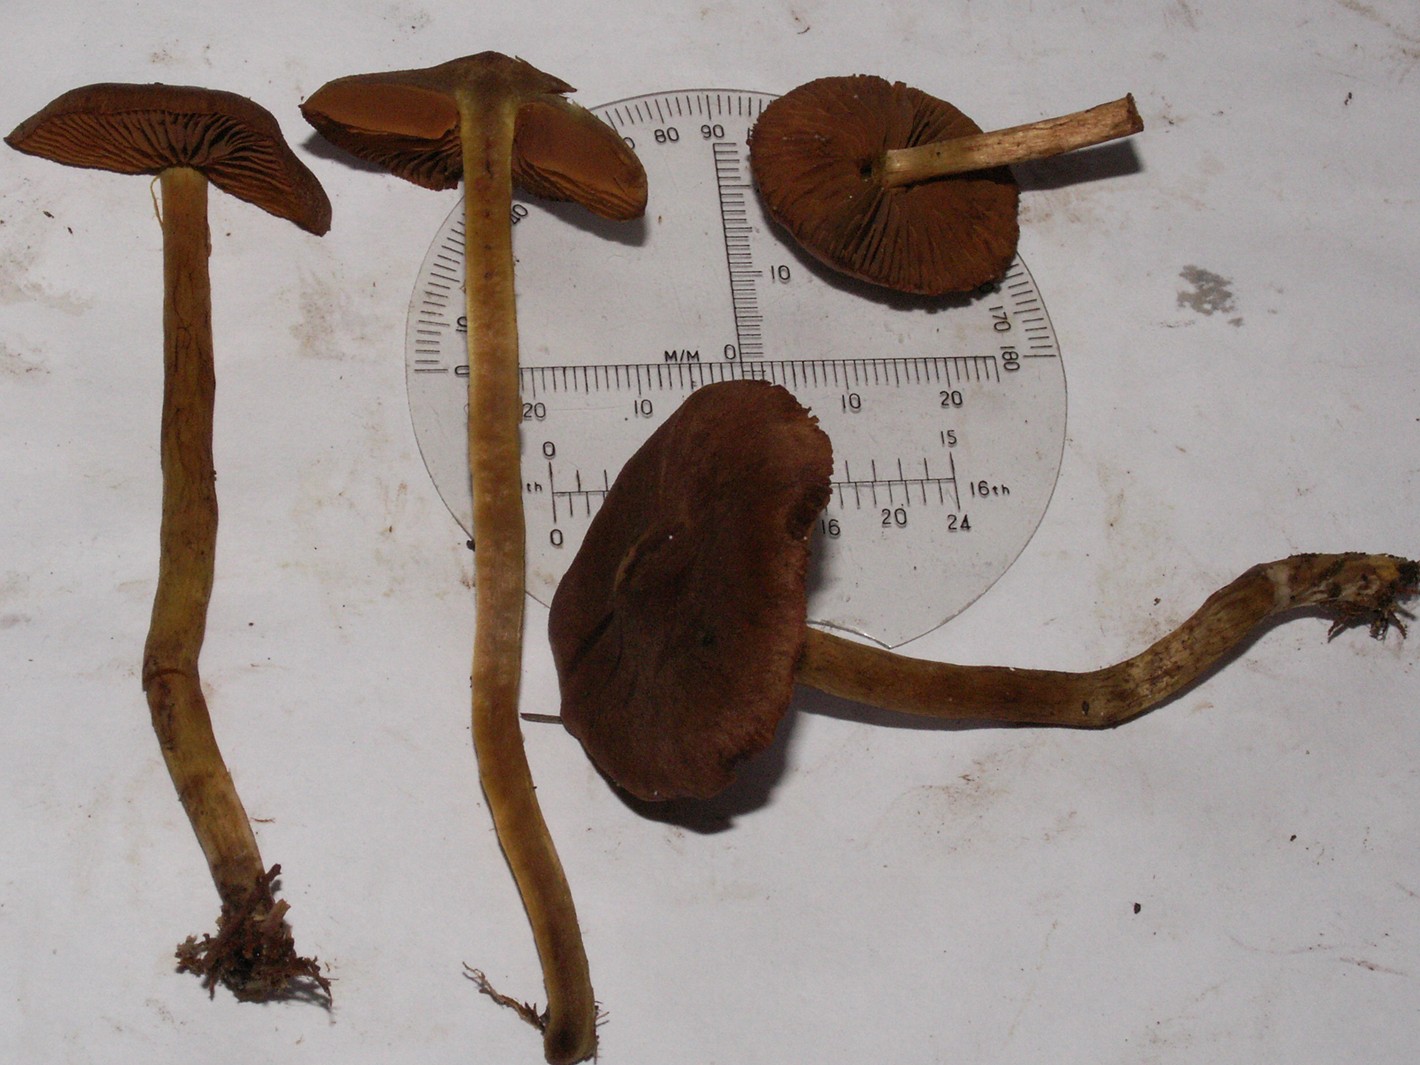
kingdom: Fungi
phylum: Basidiomycota
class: Agaricomycetes
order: Agaricales
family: Cortinariaceae
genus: Cortinarius
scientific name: Cortinarius malicorius
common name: grønkødet slørhat
